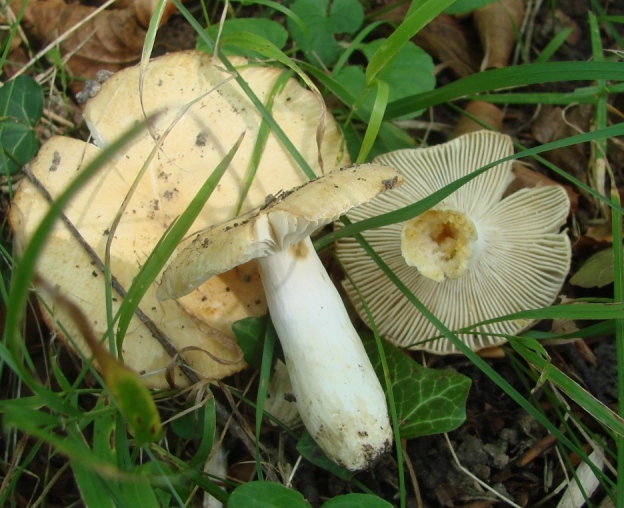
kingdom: Fungi
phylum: Basidiomycota
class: Agaricomycetes
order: Russulales
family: Russulaceae
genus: Russula
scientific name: Russula farinipes
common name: gul kam-skørhat
